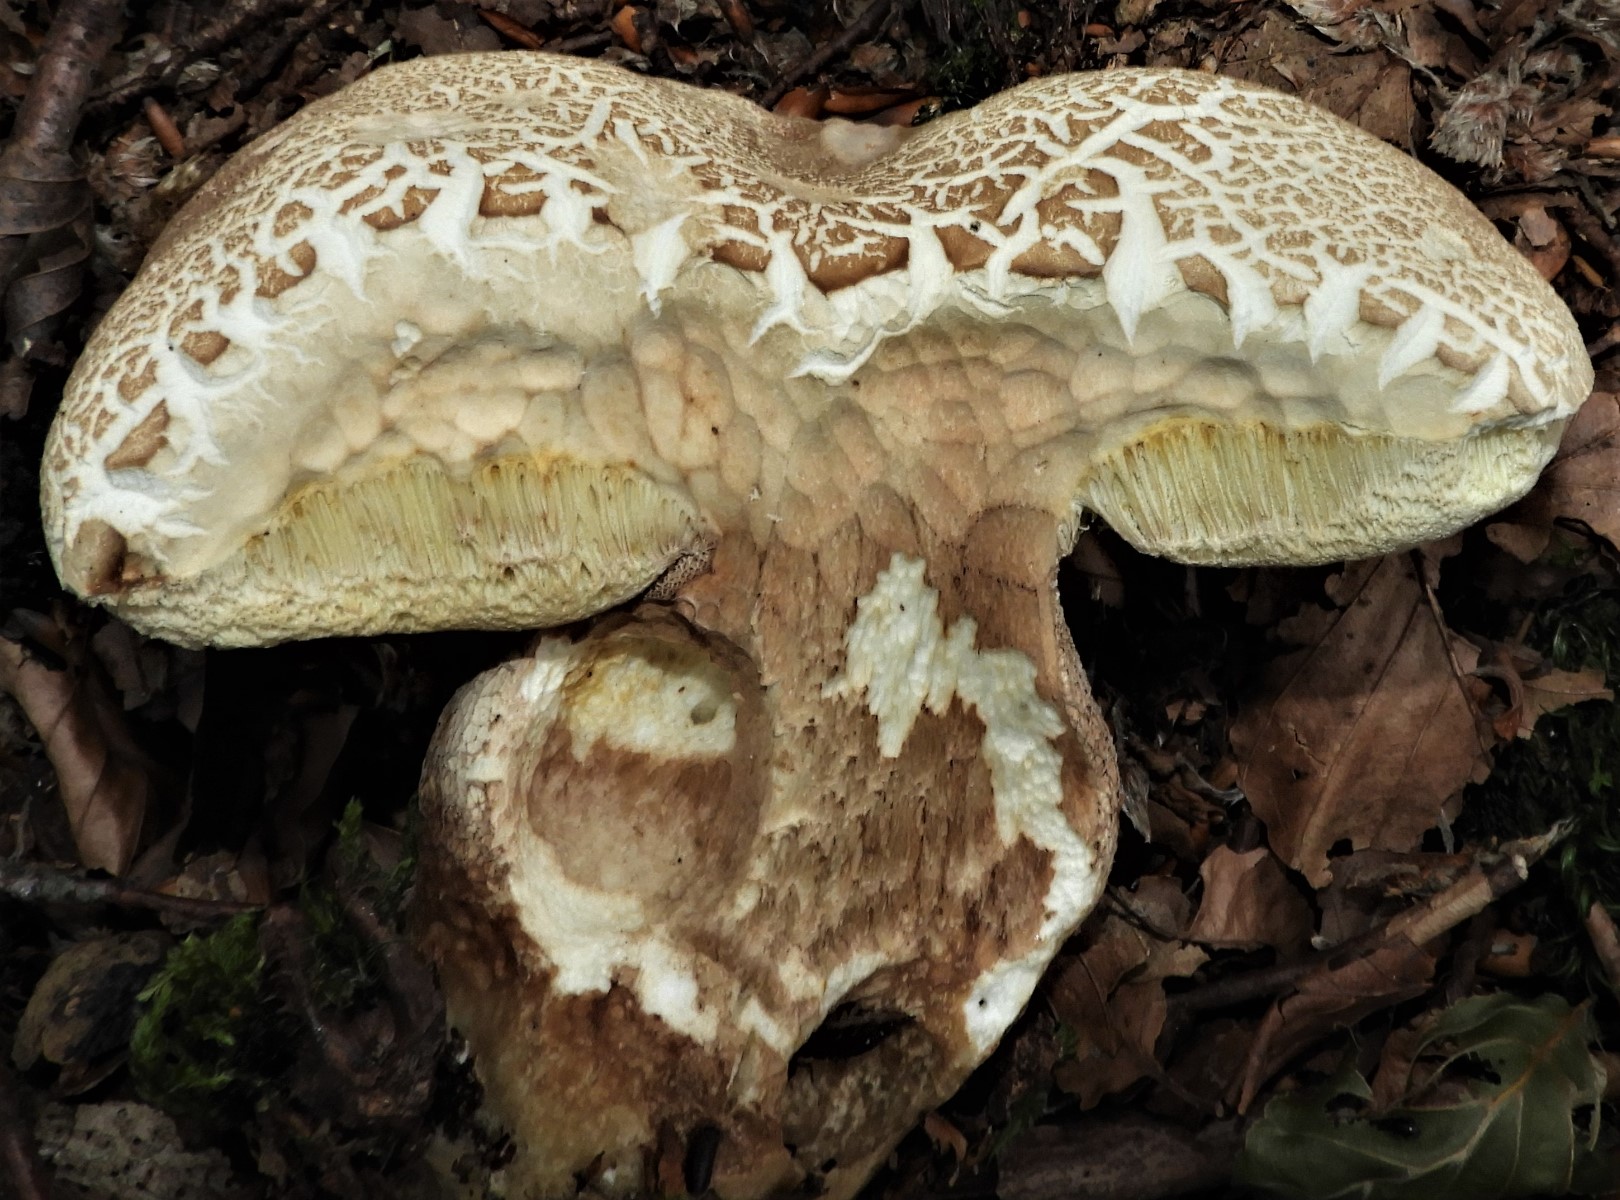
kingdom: Fungi
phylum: Basidiomycota
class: Agaricomycetes
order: Boletales
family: Boletaceae
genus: Boletus
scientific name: Boletus reticulatus
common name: sommer-rørhat
